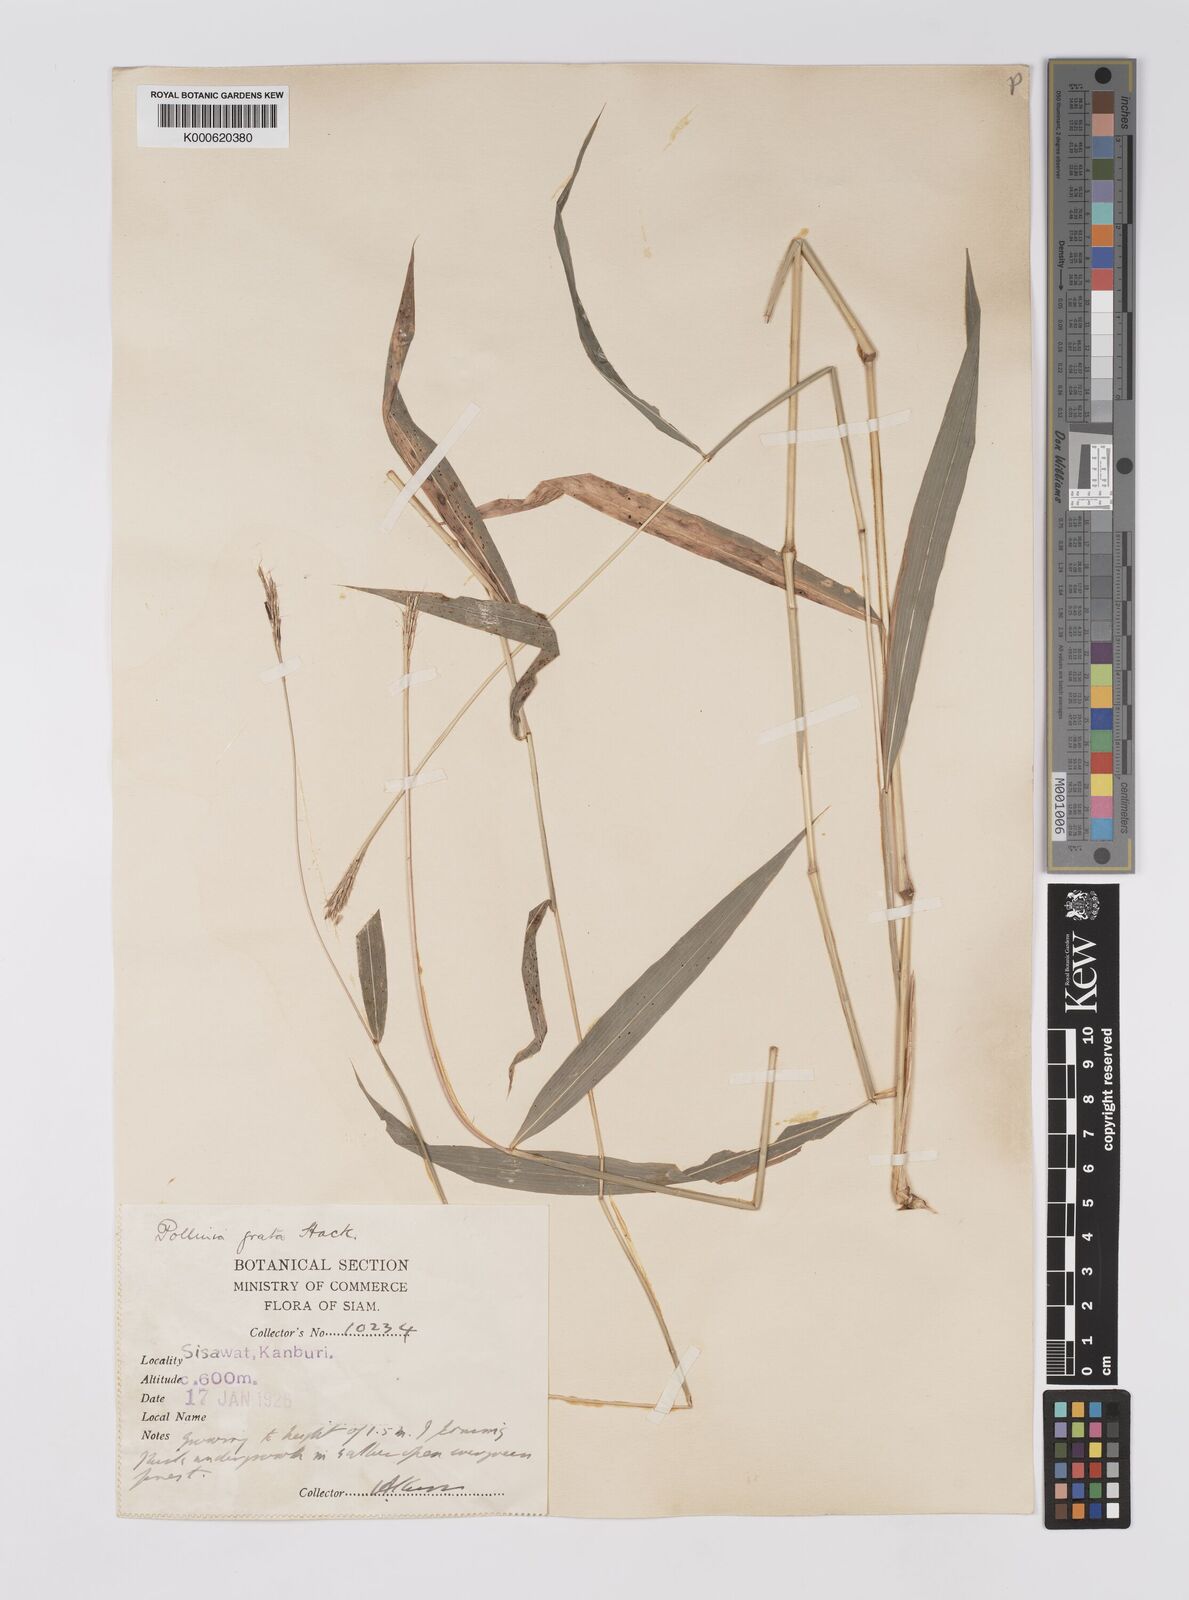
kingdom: Plantae
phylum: Tracheophyta
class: Liliopsida
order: Poales
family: Poaceae
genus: Microstegium
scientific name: Microstegium fasciculatum
